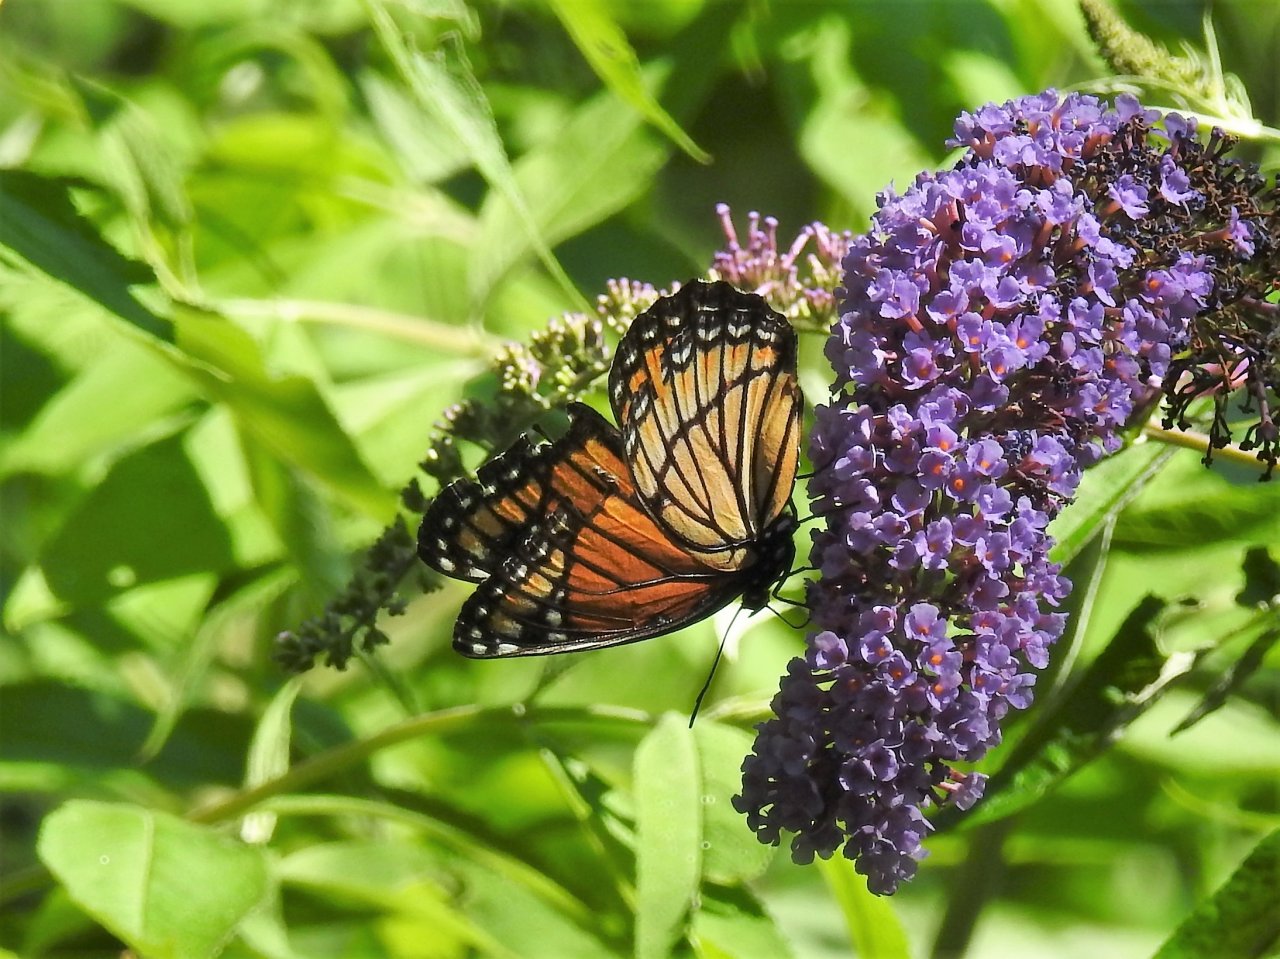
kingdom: Animalia
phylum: Arthropoda
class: Insecta
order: Lepidoptera
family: Nymphalidae
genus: Limenitis
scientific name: Limenitis archippus
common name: Viceroy
